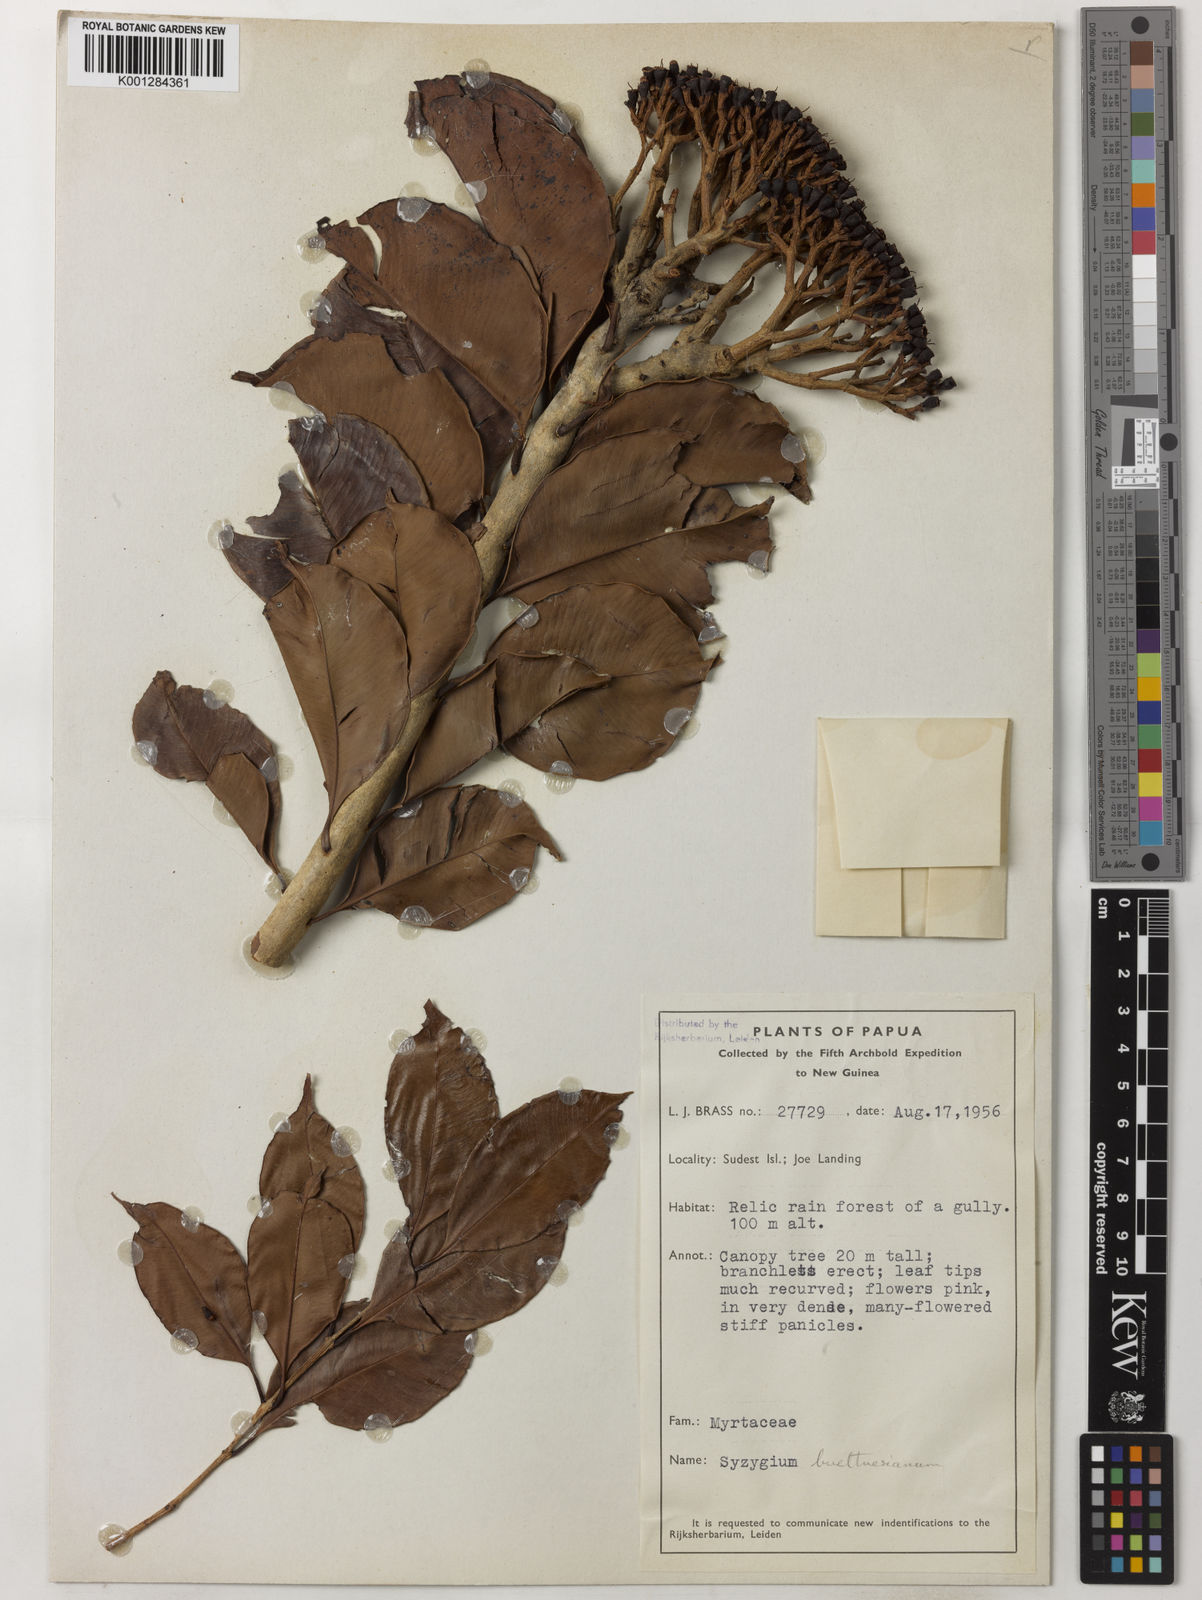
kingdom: Plantae
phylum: Tracheophyta
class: Magnoliopsida
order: Myrtales
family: Myrtaceae
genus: Syzygium
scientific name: Syzygium buettnerianum
